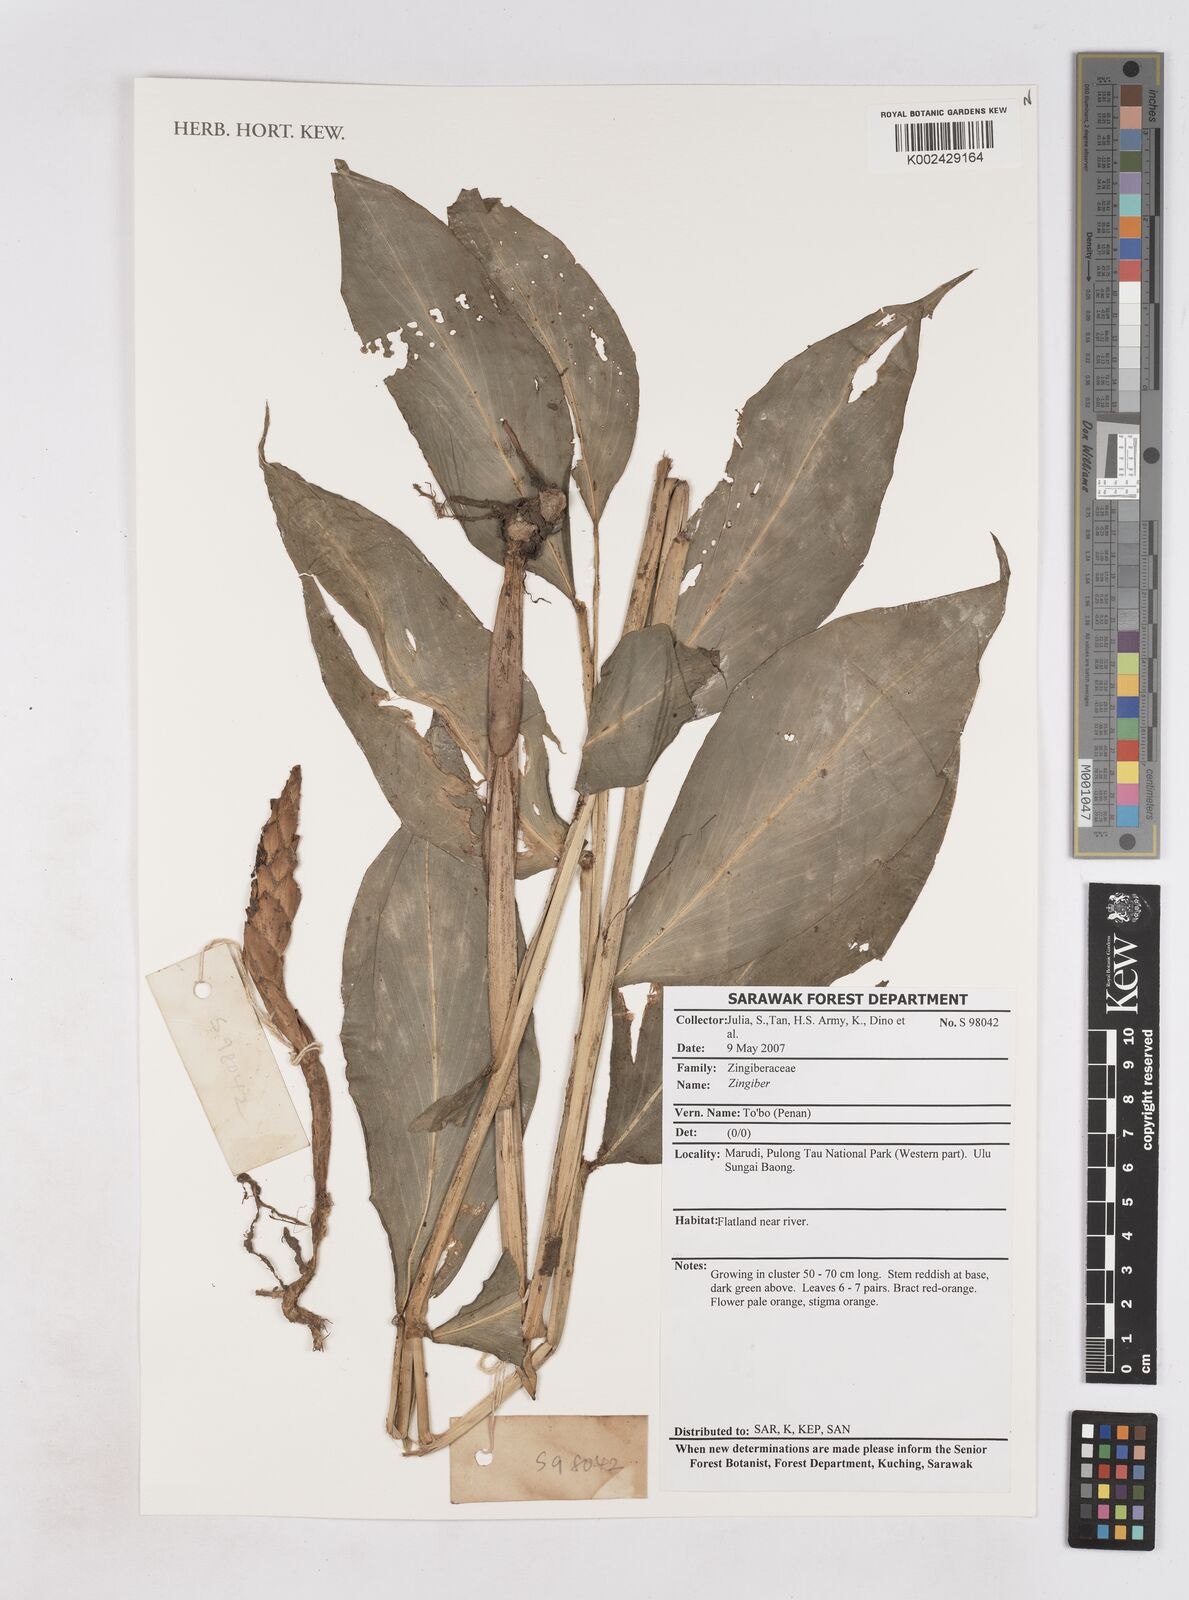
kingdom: Plantae
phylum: Tracheophyta
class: Liliopsida
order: Zingiberales
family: Zingiberaceae
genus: Zingiber
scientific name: Zingiber
